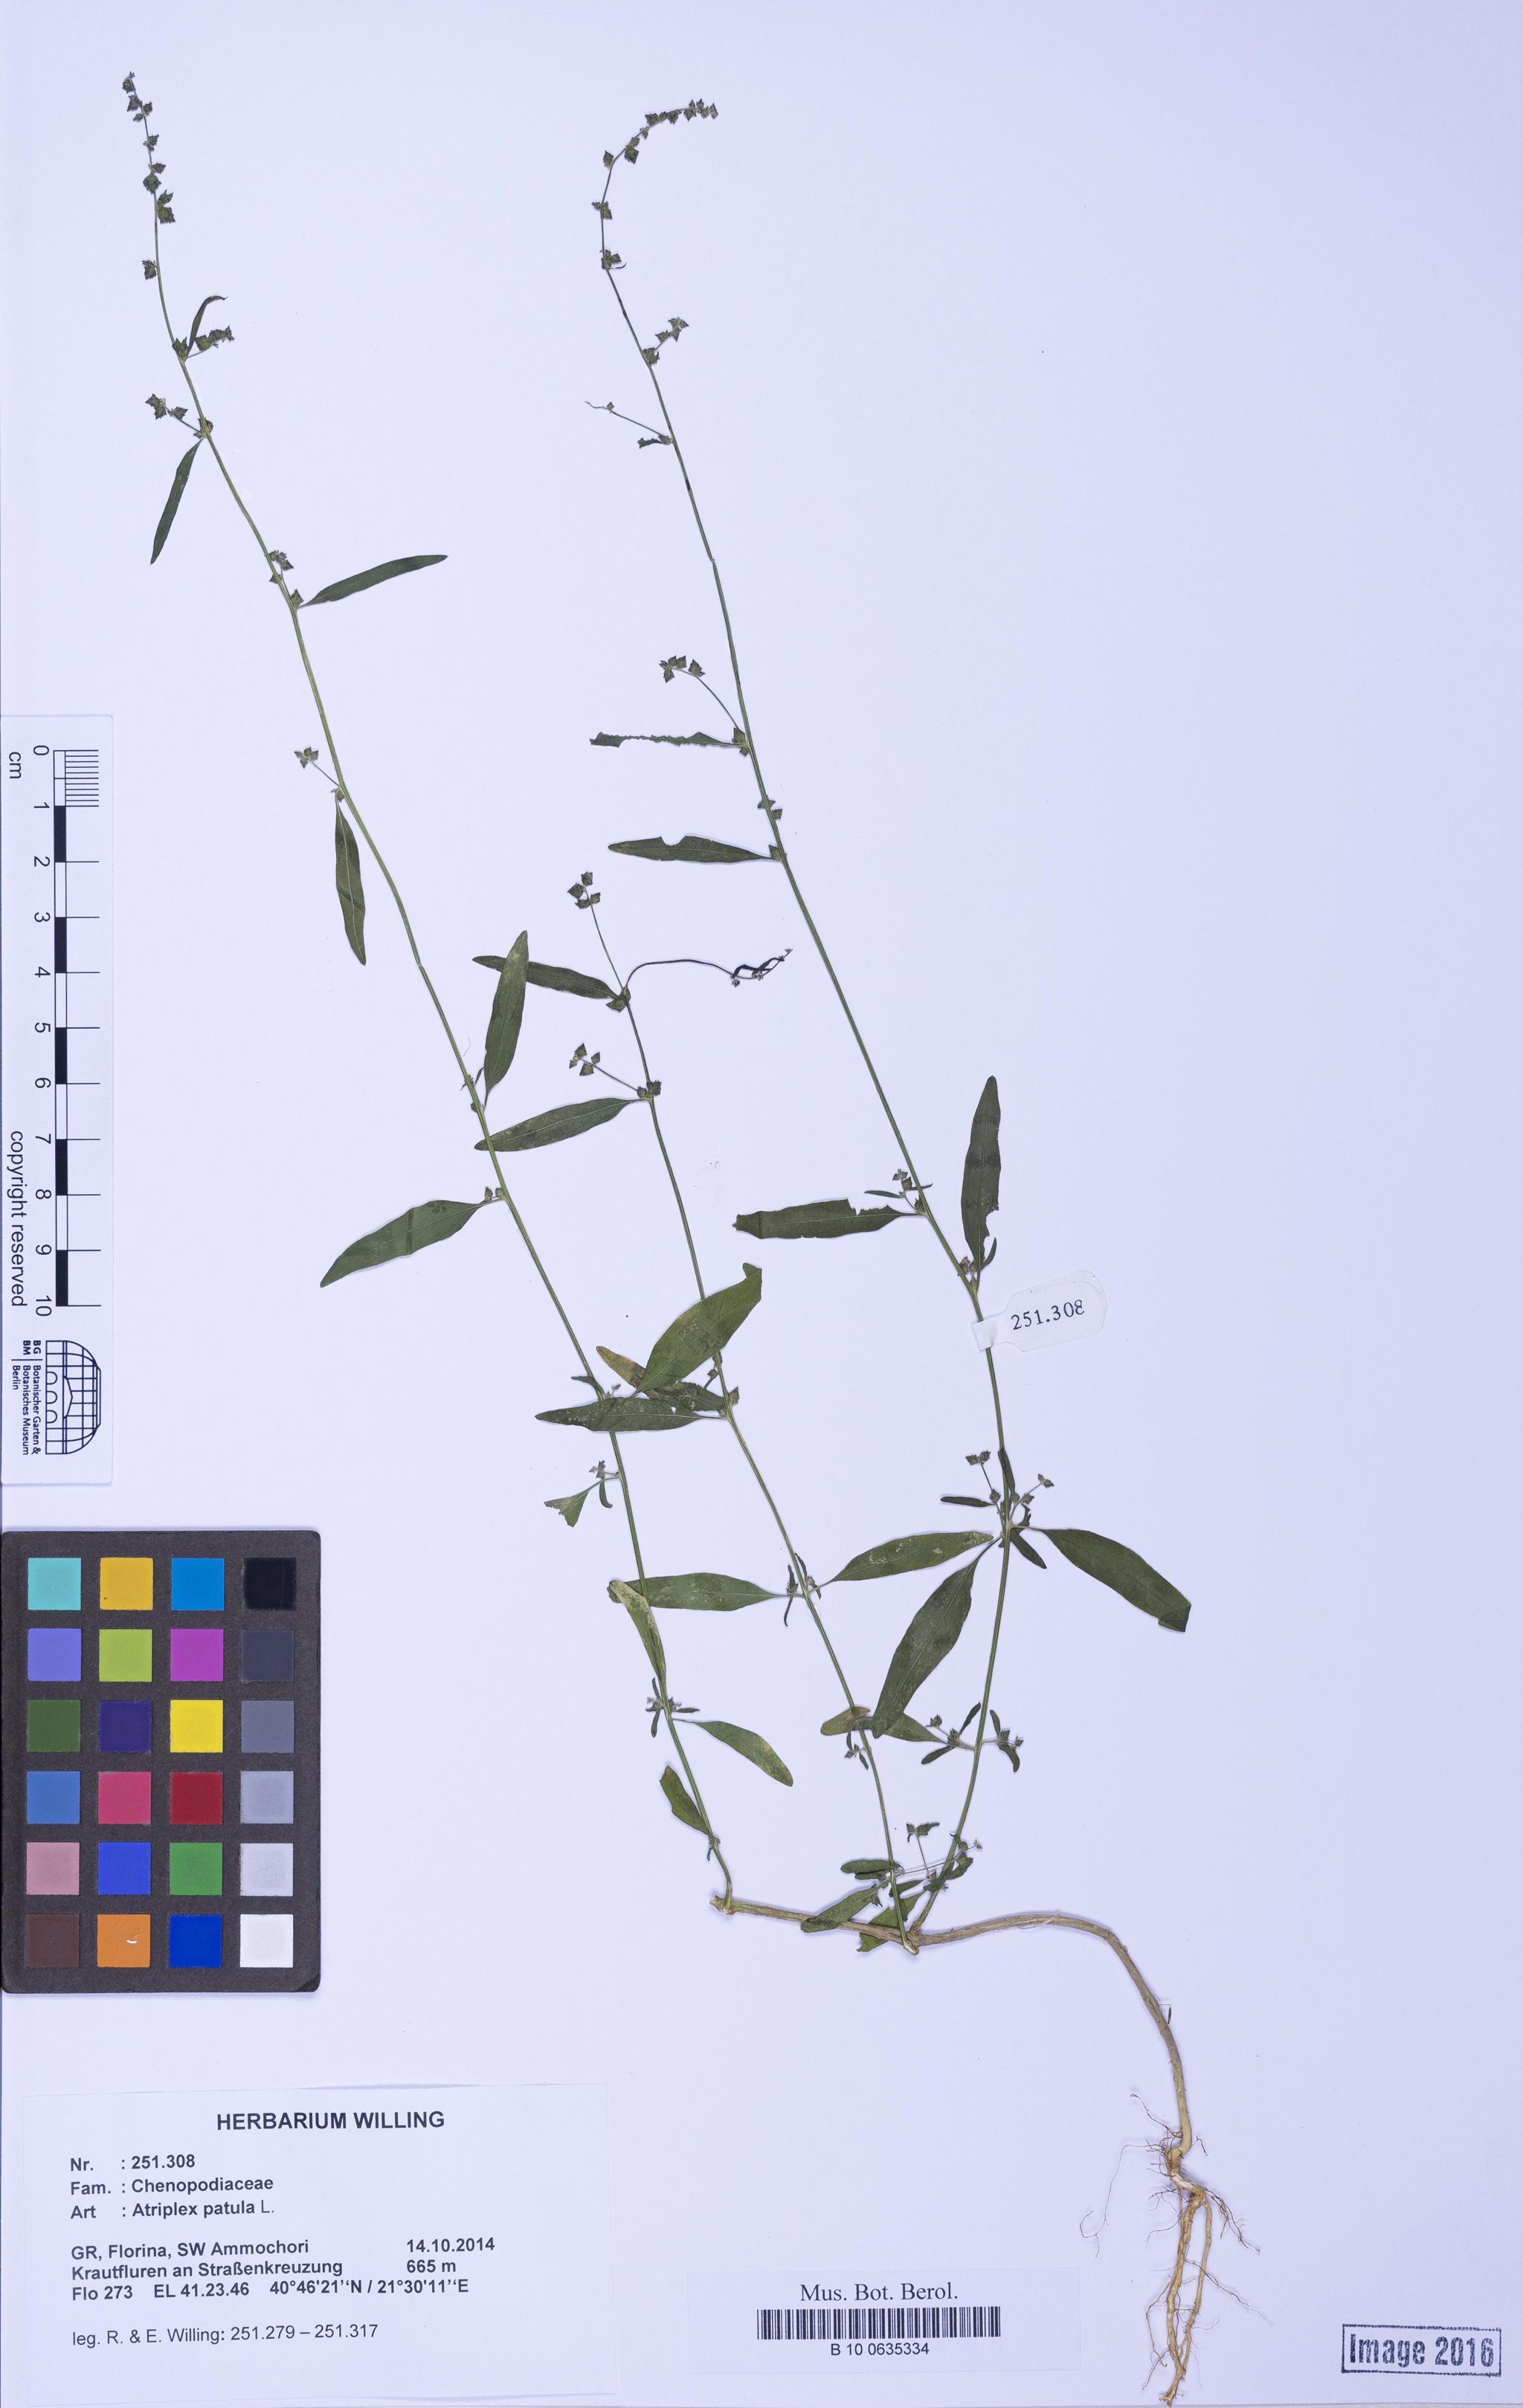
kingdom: Plantae
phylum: Tracheophyta
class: Magnoliopsida
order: Caryophyllales
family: Amaranthaceae
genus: Atriplex
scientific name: Atriplex patula
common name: Common orache
